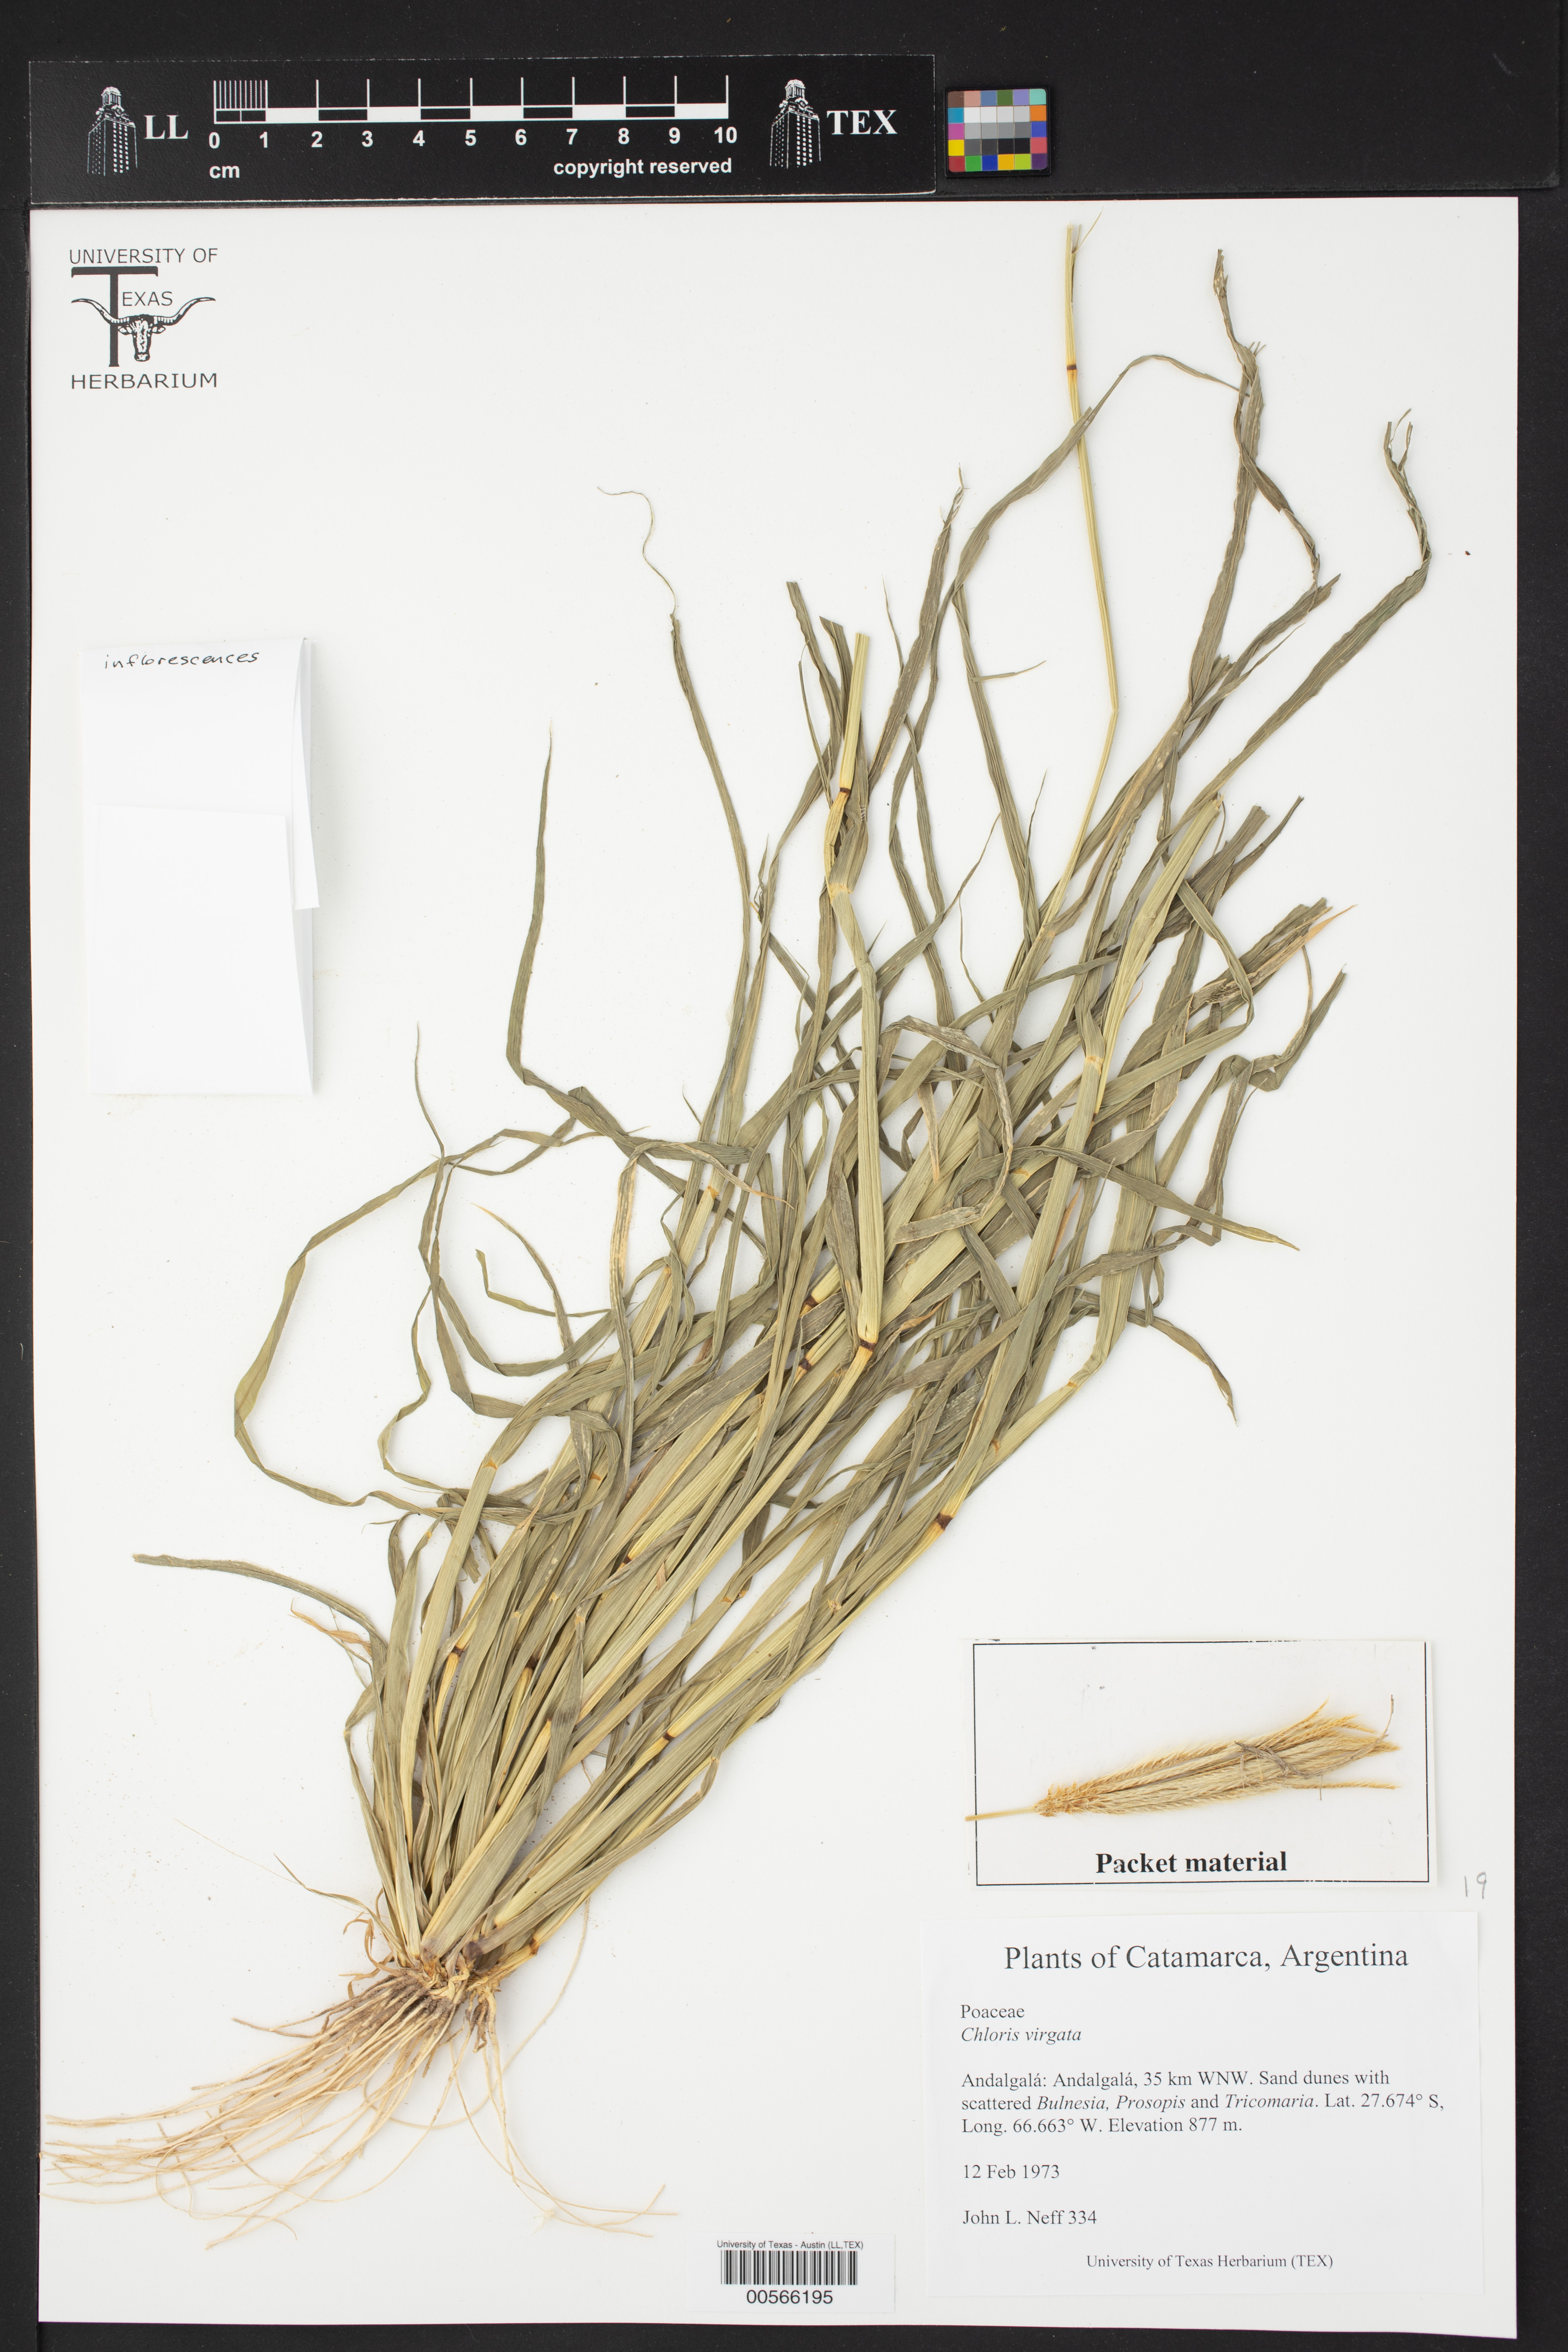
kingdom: Plantae
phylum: Tracheophyta
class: Liliopsida
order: Poales
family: Poaceae
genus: Chloris
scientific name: Chloris virgata
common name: Feathery rhodes-grass
